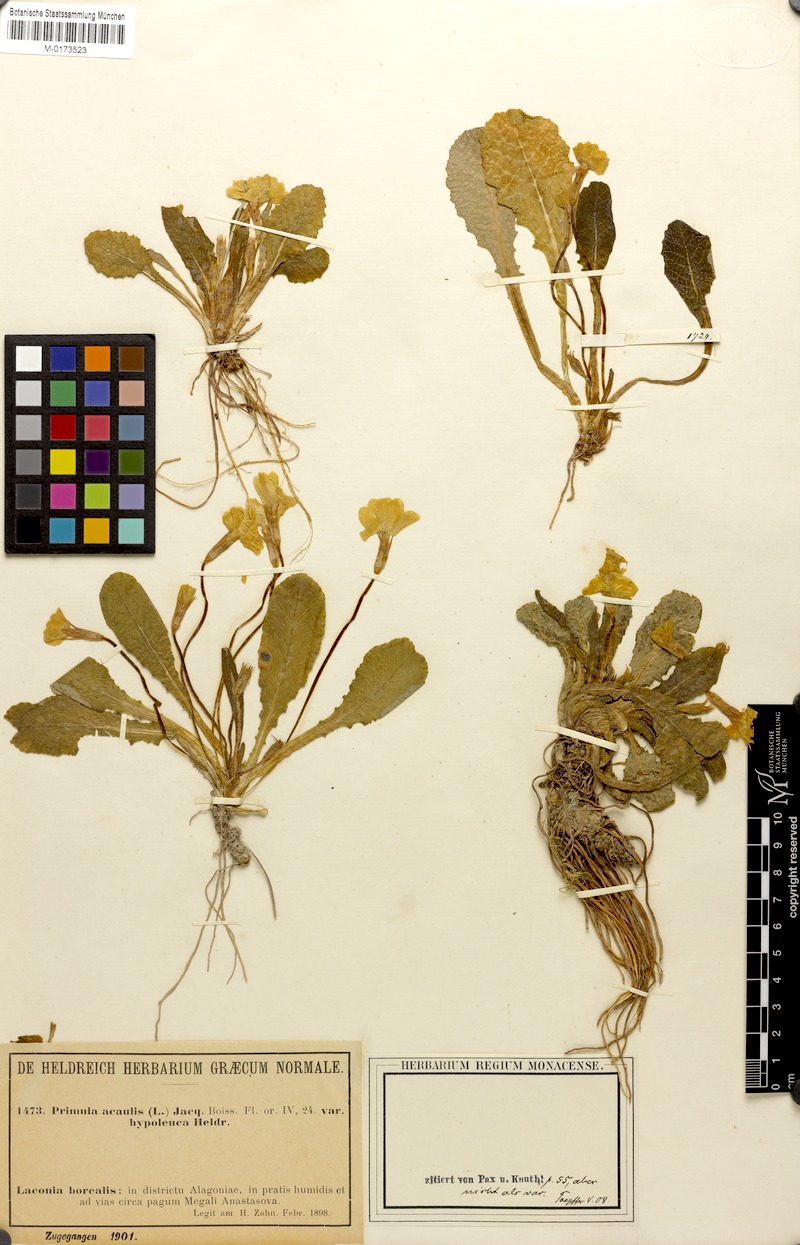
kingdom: Plantae
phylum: Tracheophyta
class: Magnoliopsida
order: Ericales
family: Primulaceae
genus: Primula
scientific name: Primula vulgaris
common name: Primrose
